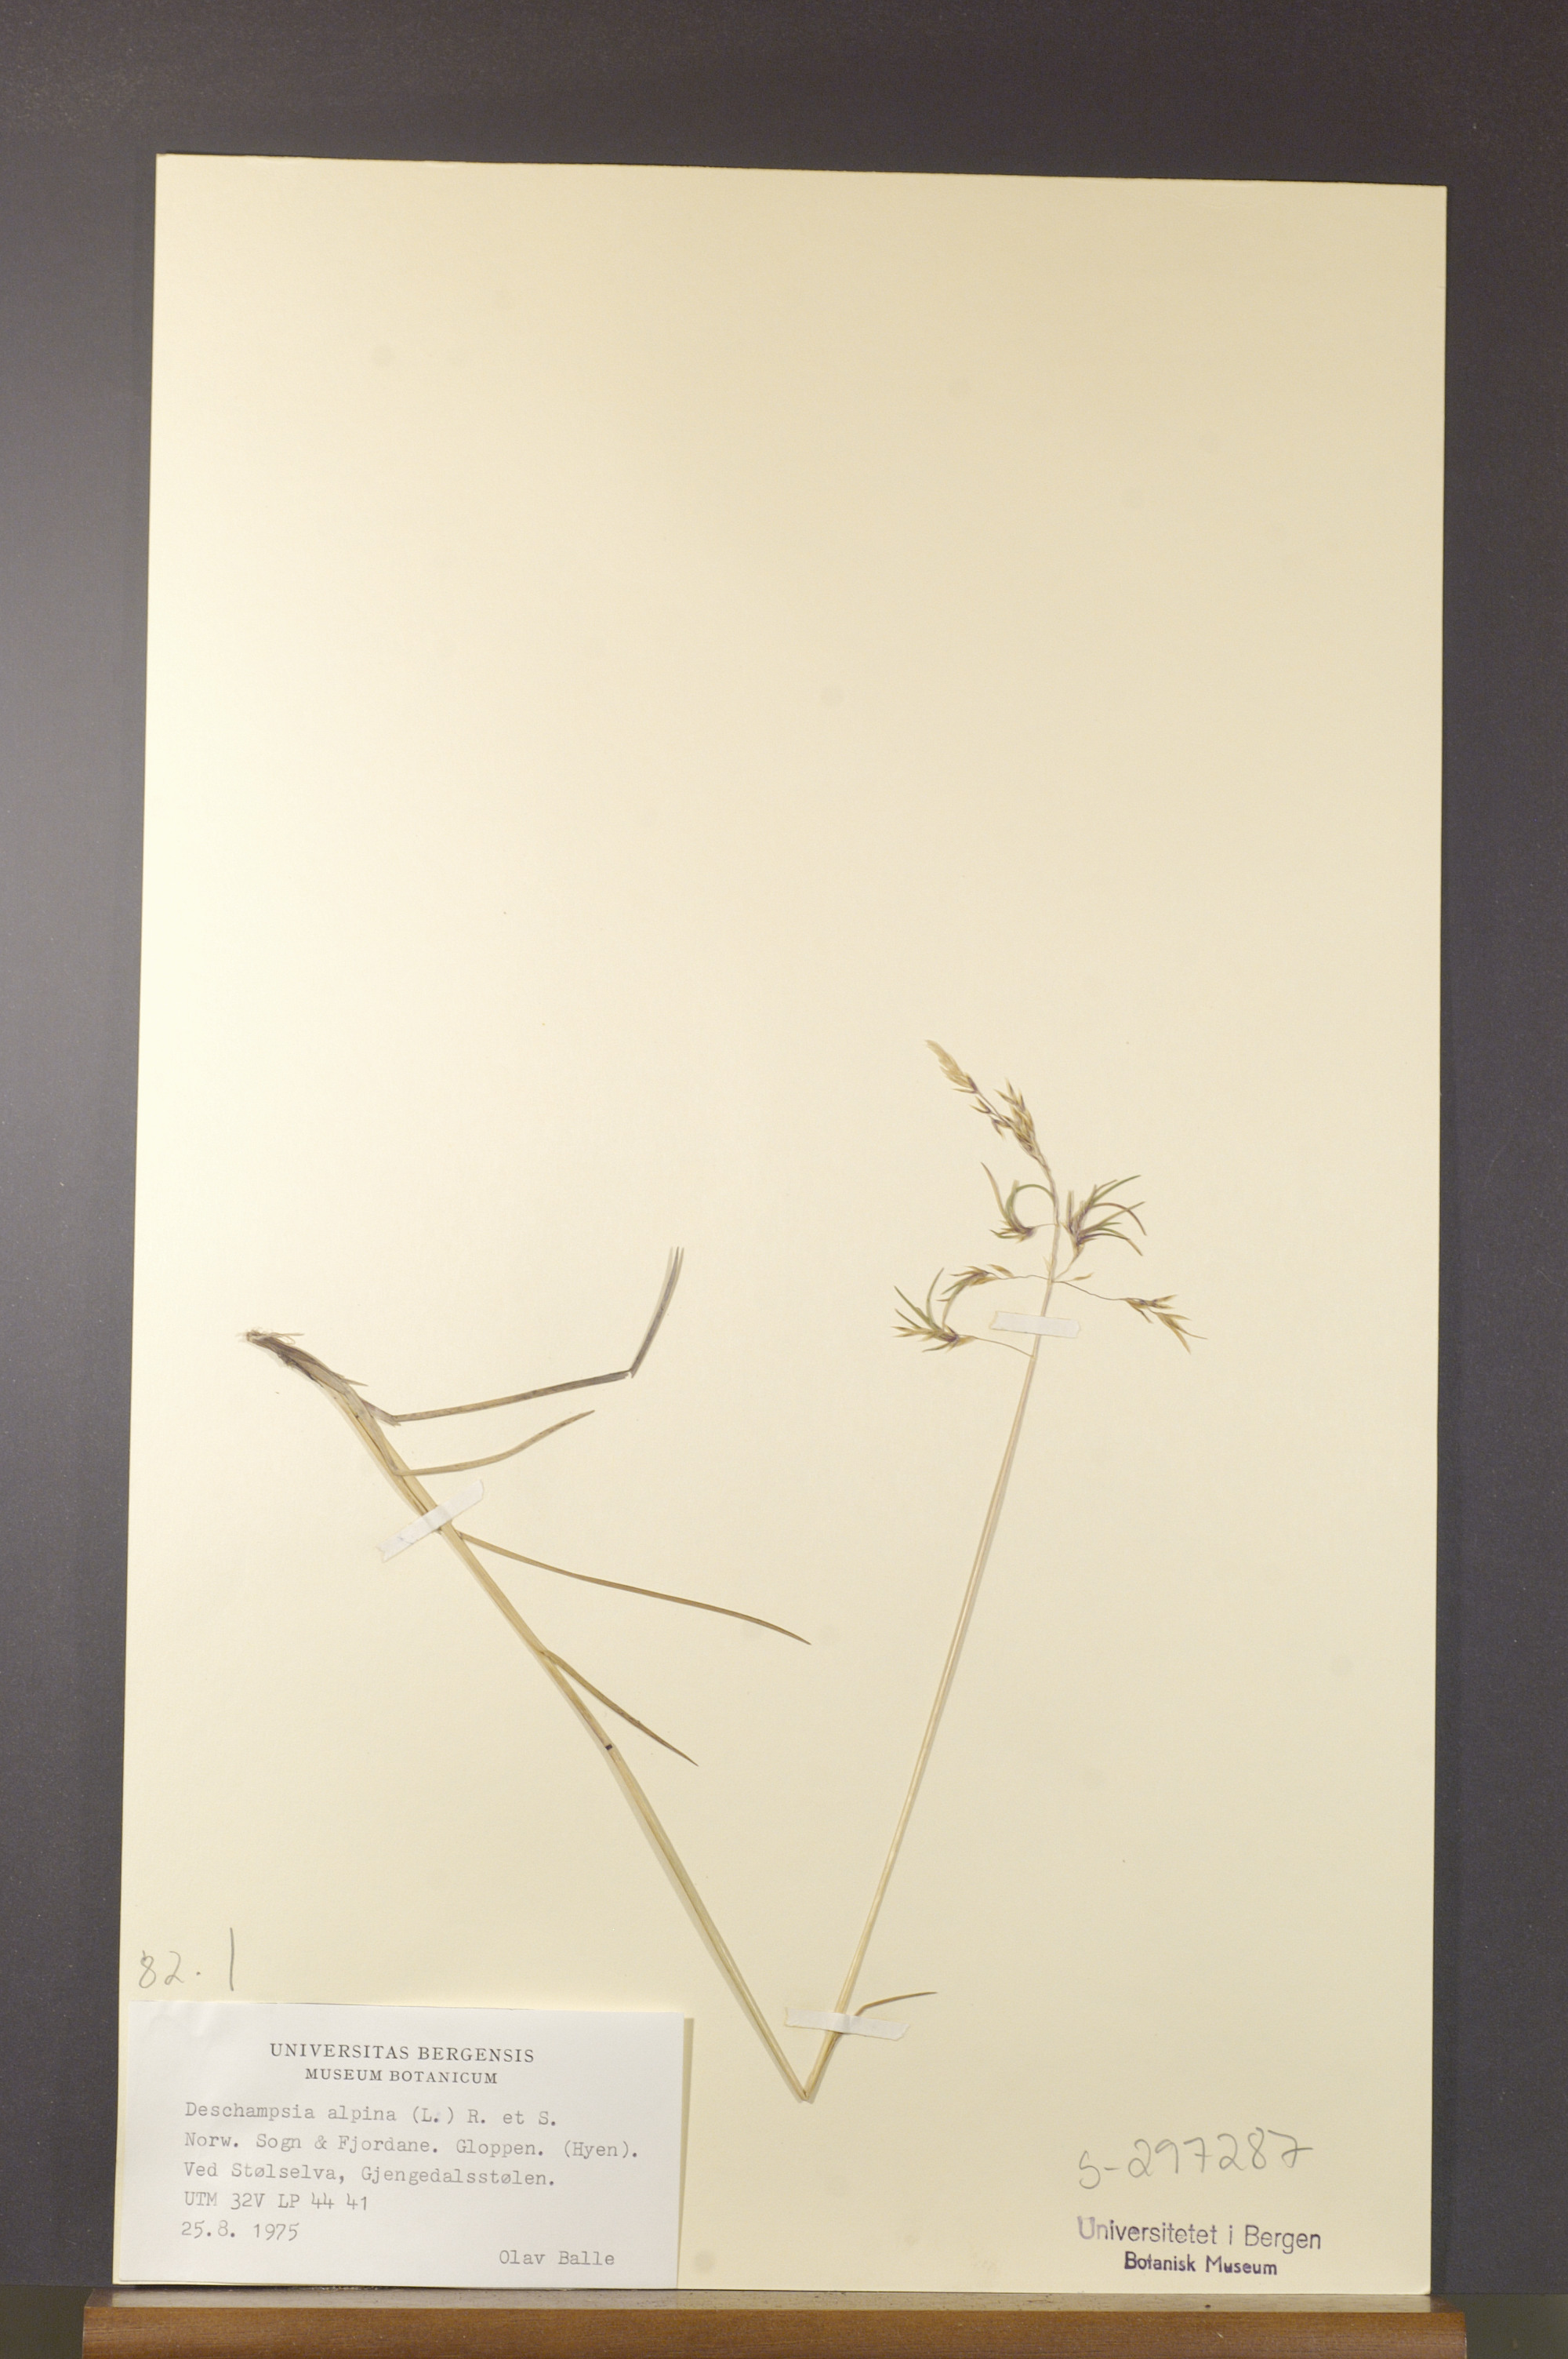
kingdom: Plantae
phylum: Tracheophyta
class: Liliopsida
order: Poales
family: Poaceae
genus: Deschampsia
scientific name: Deschampsia cespitosa
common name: Tufted hair-grass
